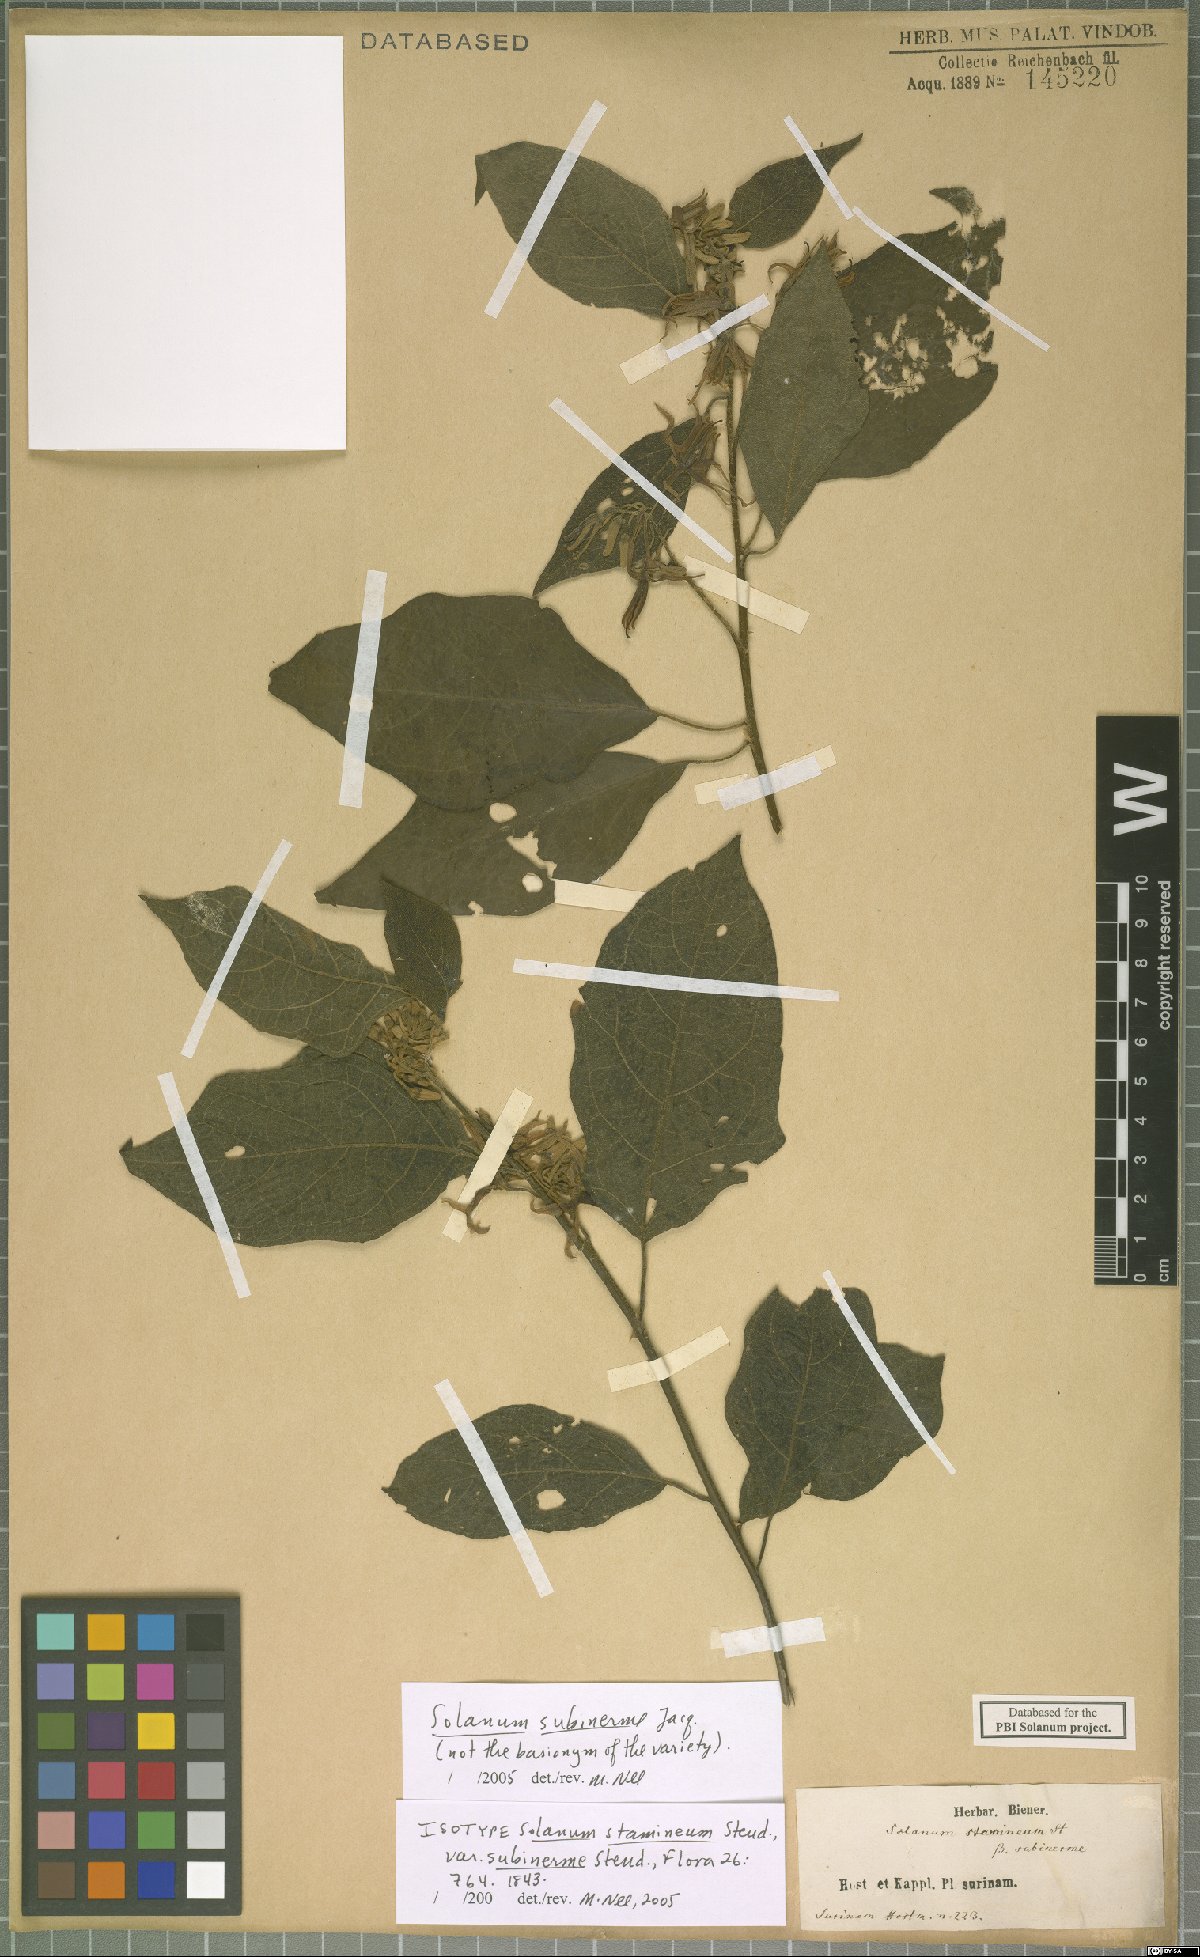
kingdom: Plantae
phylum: Tracheophyta
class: Magnoliopsida
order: Solanales
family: Solanaceae
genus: Solanum
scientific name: Solanum subinerme
